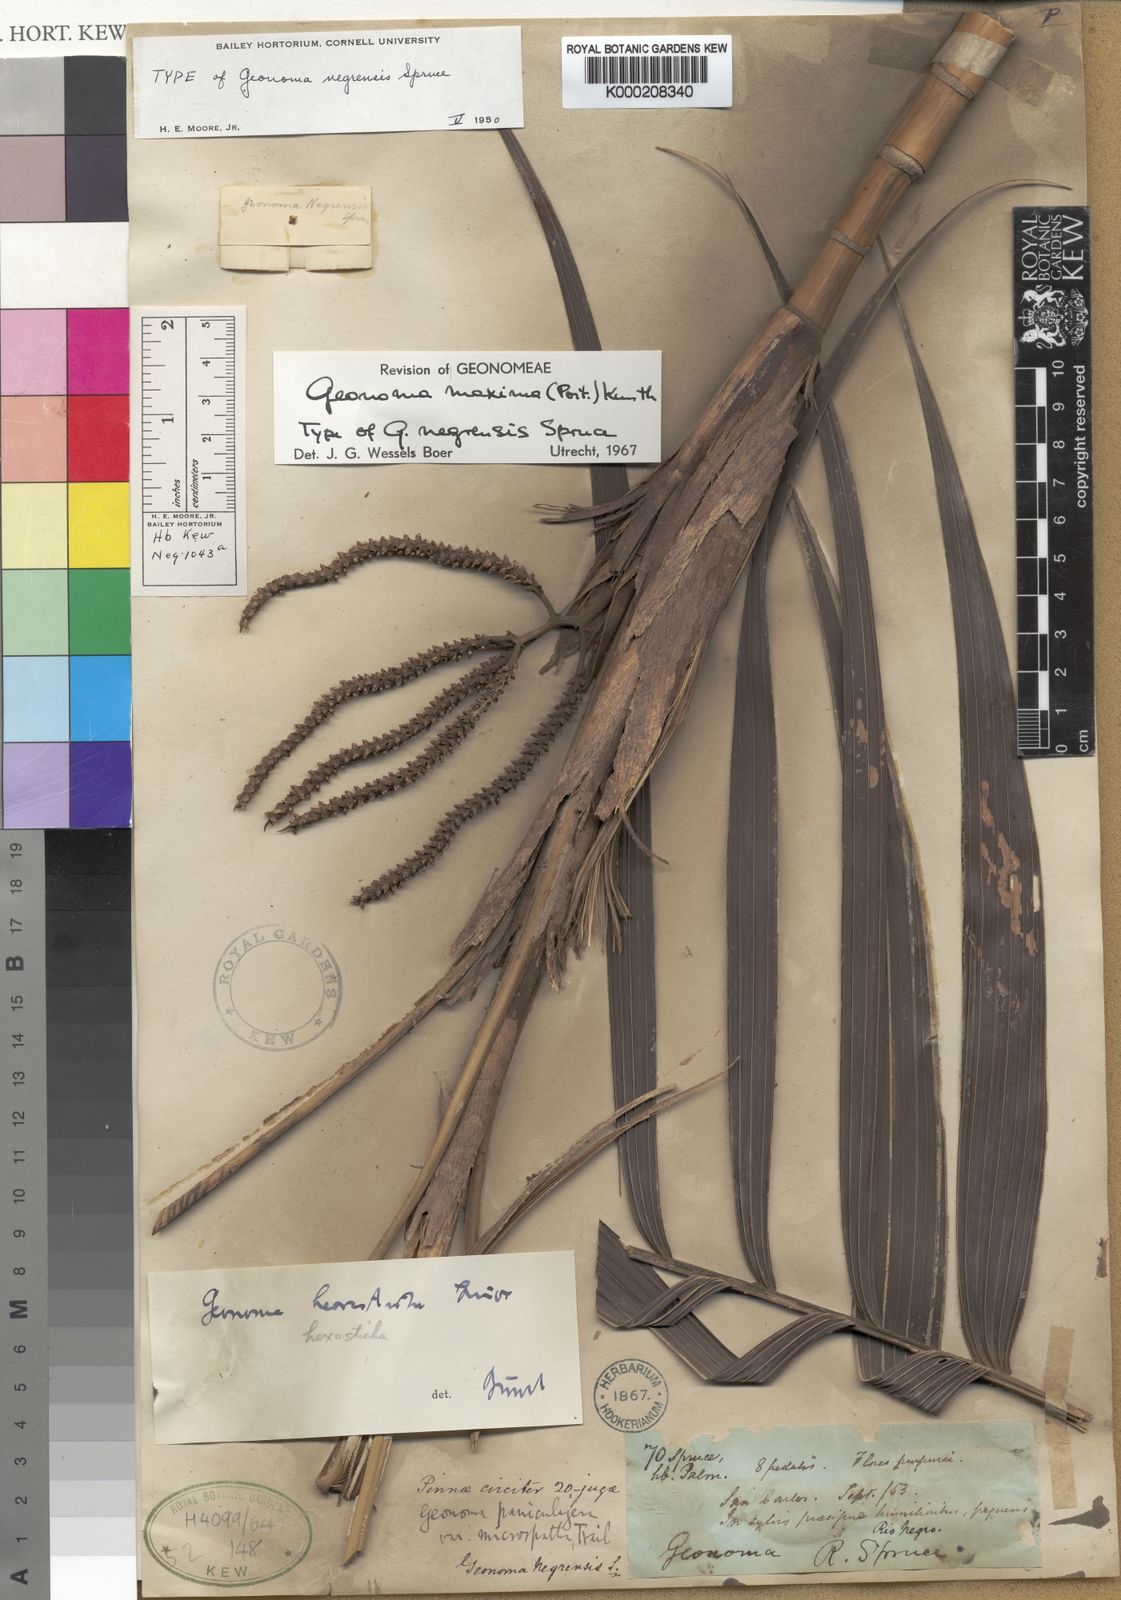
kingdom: Plantae
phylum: Tracheophyta
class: Liliopsida
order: Arecales
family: Arecaceae
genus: Geonoma
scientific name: Geonoma maxima
